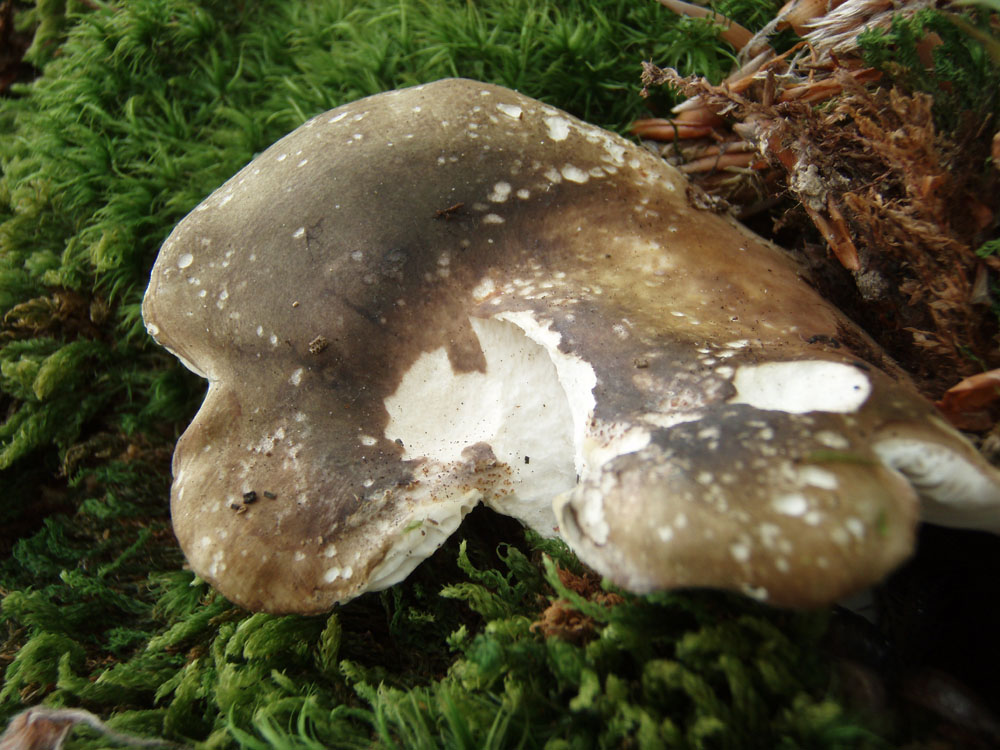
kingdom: Fungi
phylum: Basidiomycota
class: Agaricomycetes
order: Russulales
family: Russulaceae
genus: Russula
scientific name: Russula faustiana
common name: olivengrå skørhat
